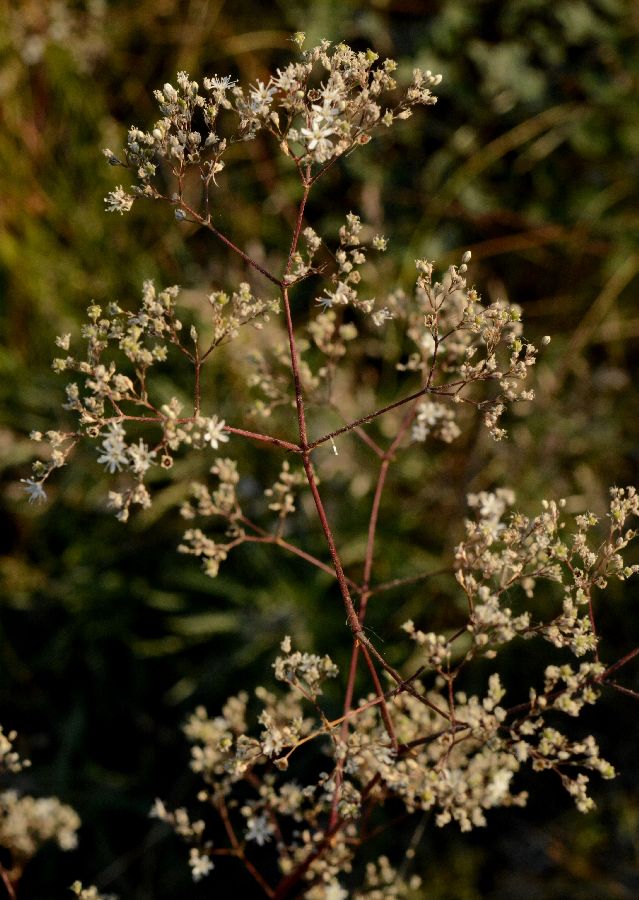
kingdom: Plantae
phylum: Tracheophyta
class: Magnoliopsida
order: Caryophyllales
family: Caryophyllaceae
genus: Gypsophila
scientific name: Gypsophila altissima
